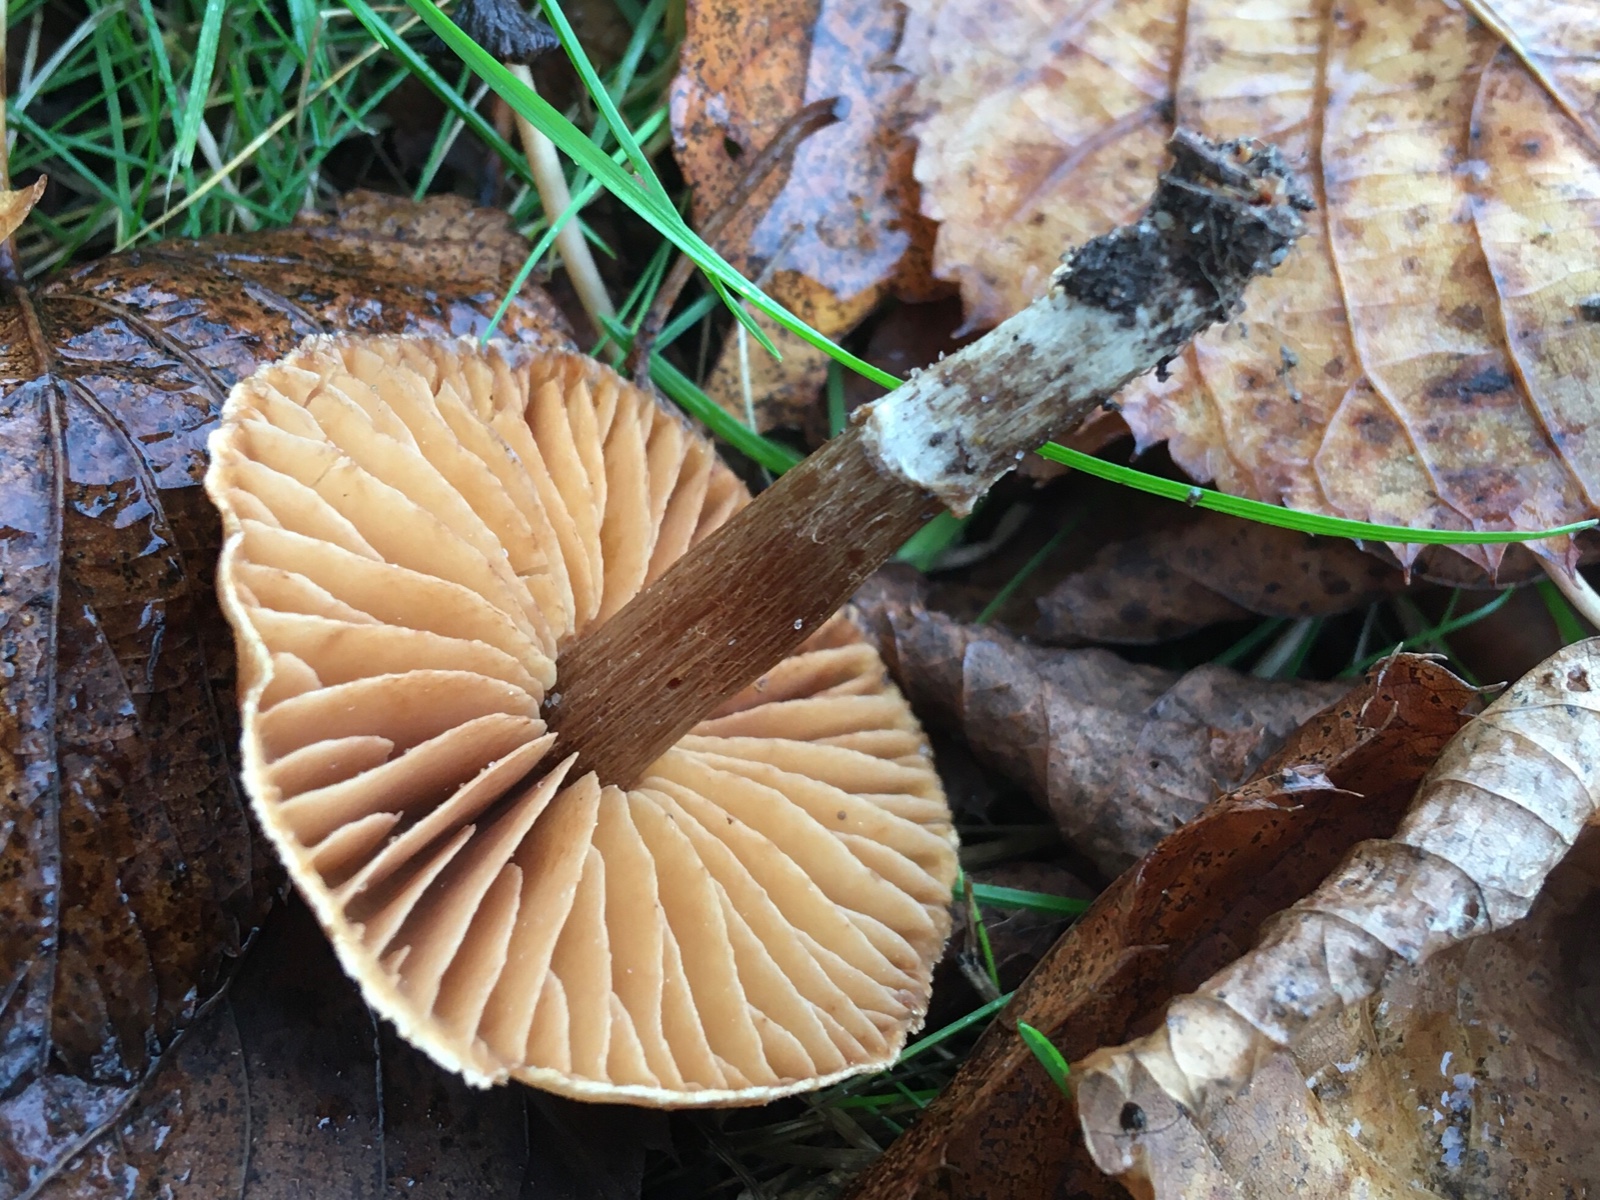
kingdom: Fungi
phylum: Basidiomycota
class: Agaricomycetes
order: Agaricales
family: Cortinariaceae
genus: Cortinarius
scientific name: Cortinarius
